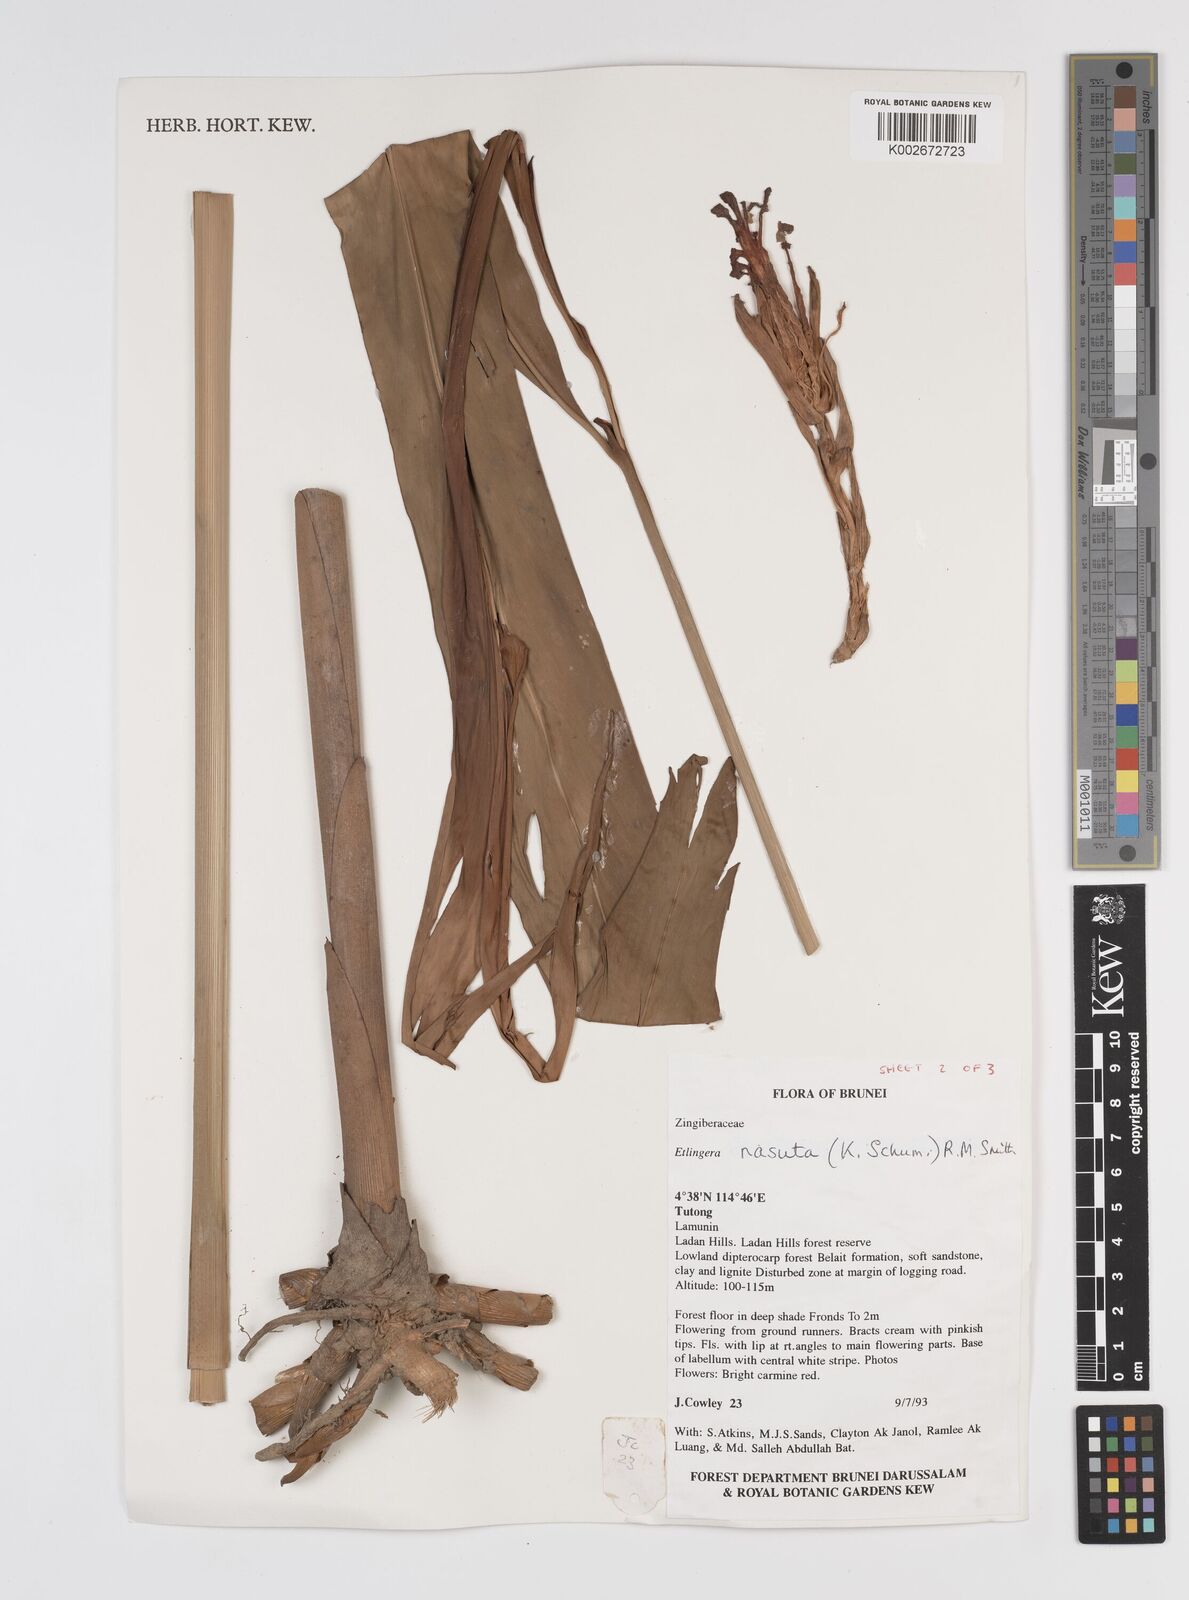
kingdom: Plantae
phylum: Tracheophyta
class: Liliopsida
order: Zingiberales
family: Zingiberaceae
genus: Etlingera
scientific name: Etlingera nasuta
